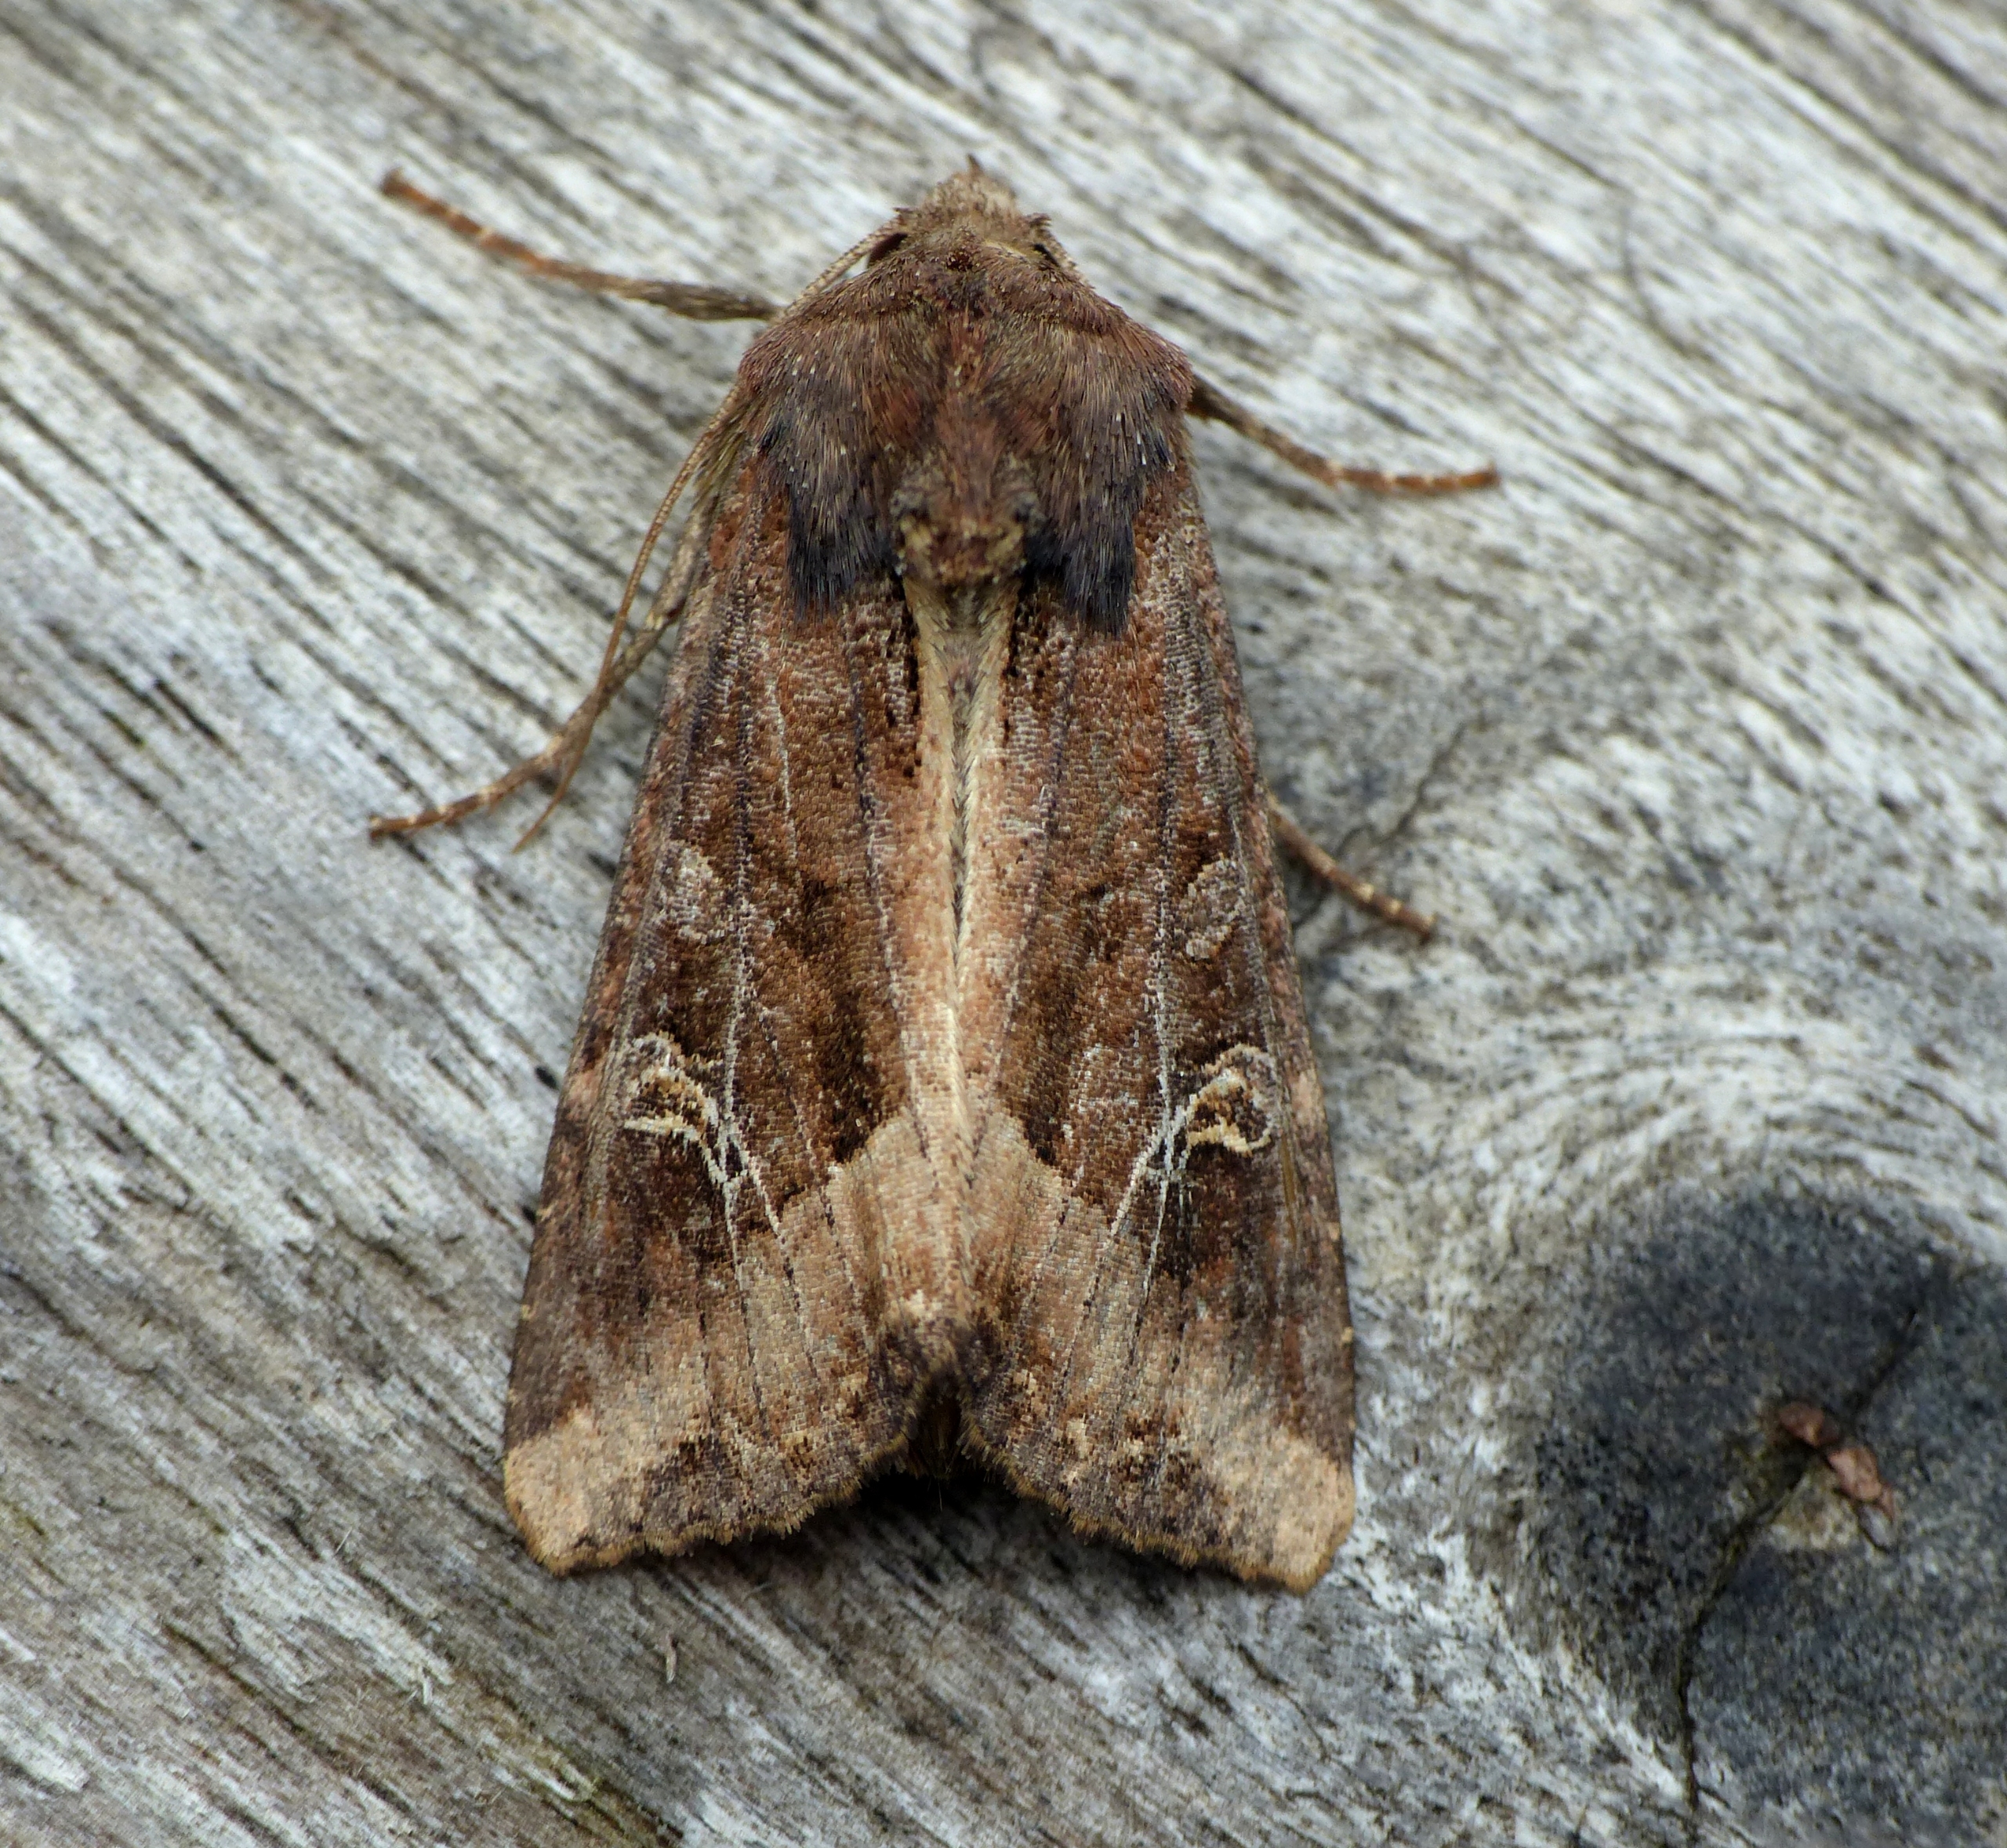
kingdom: Animalia
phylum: Arthropoda
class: Insecta
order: Lepidoptera
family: Noctuidae
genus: Helotropha
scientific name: Helotropha leucostigma
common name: Brun engugle
